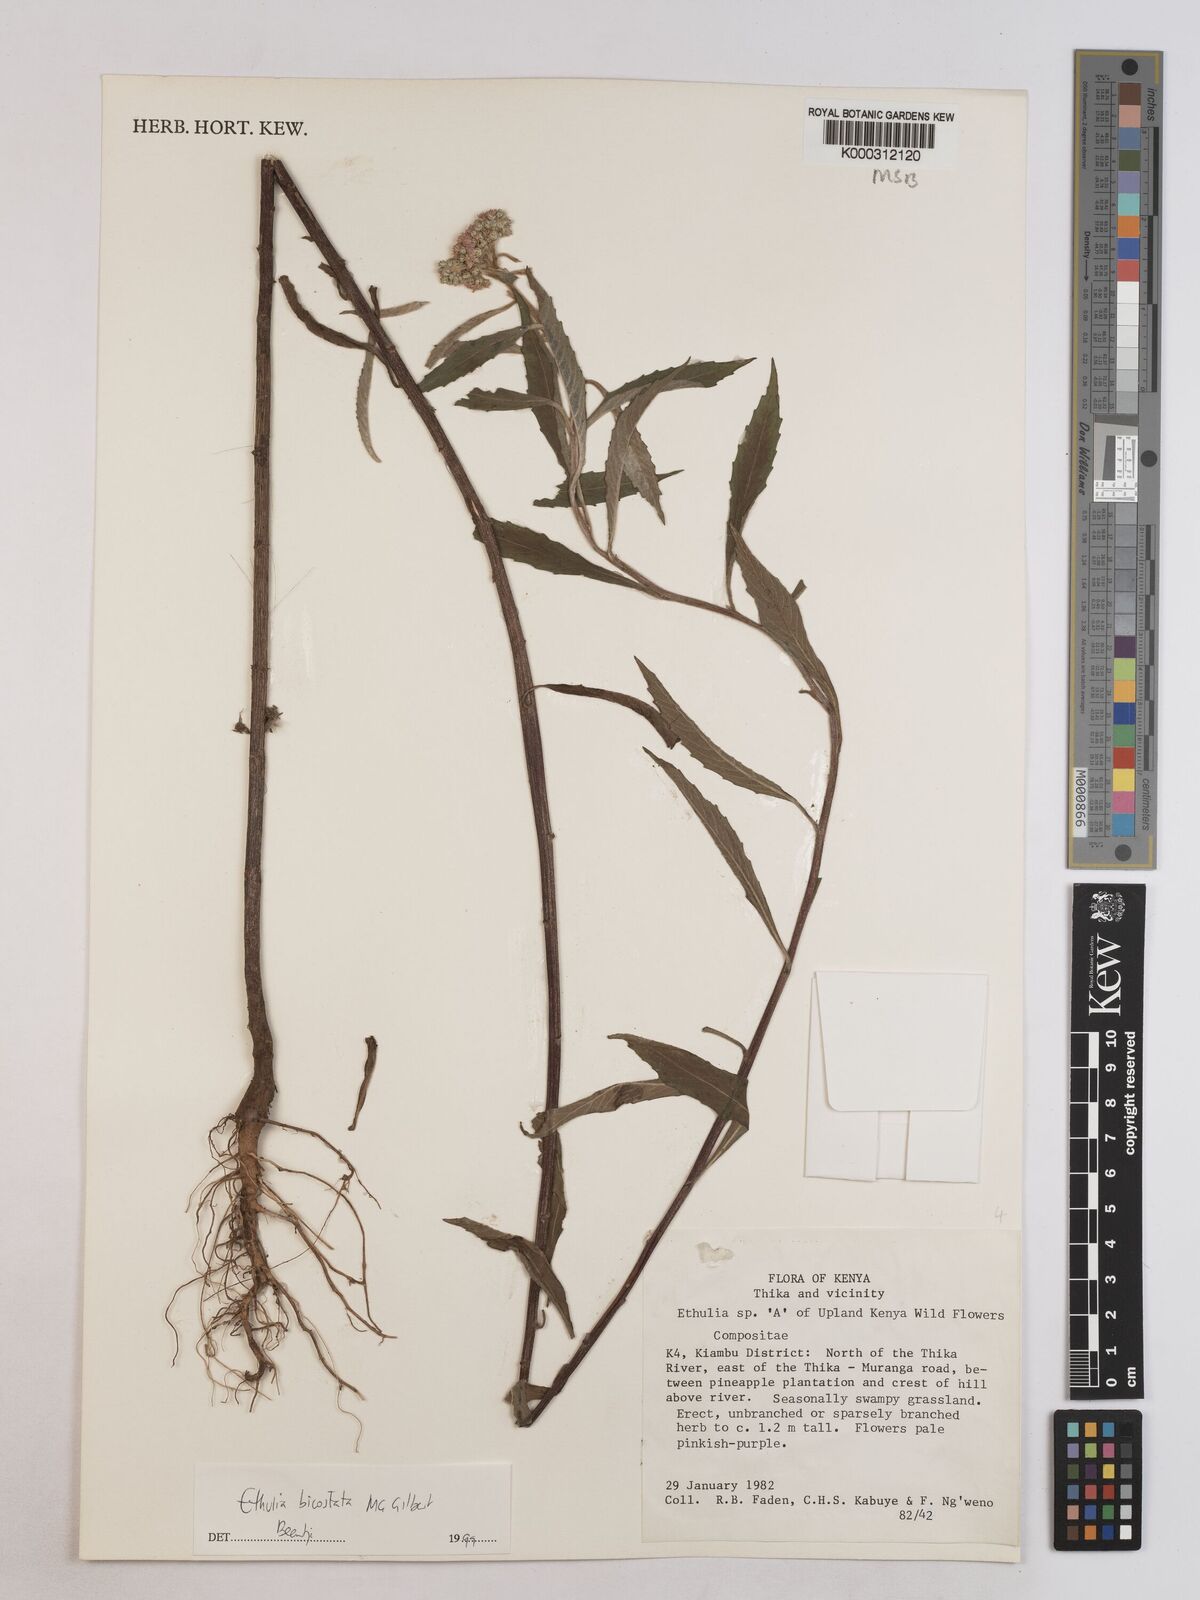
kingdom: Plantae
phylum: Tracheophyta
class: Magnoliopsida
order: Asterales
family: Asteraceae
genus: Ethulia
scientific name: Ethulia bicostata
